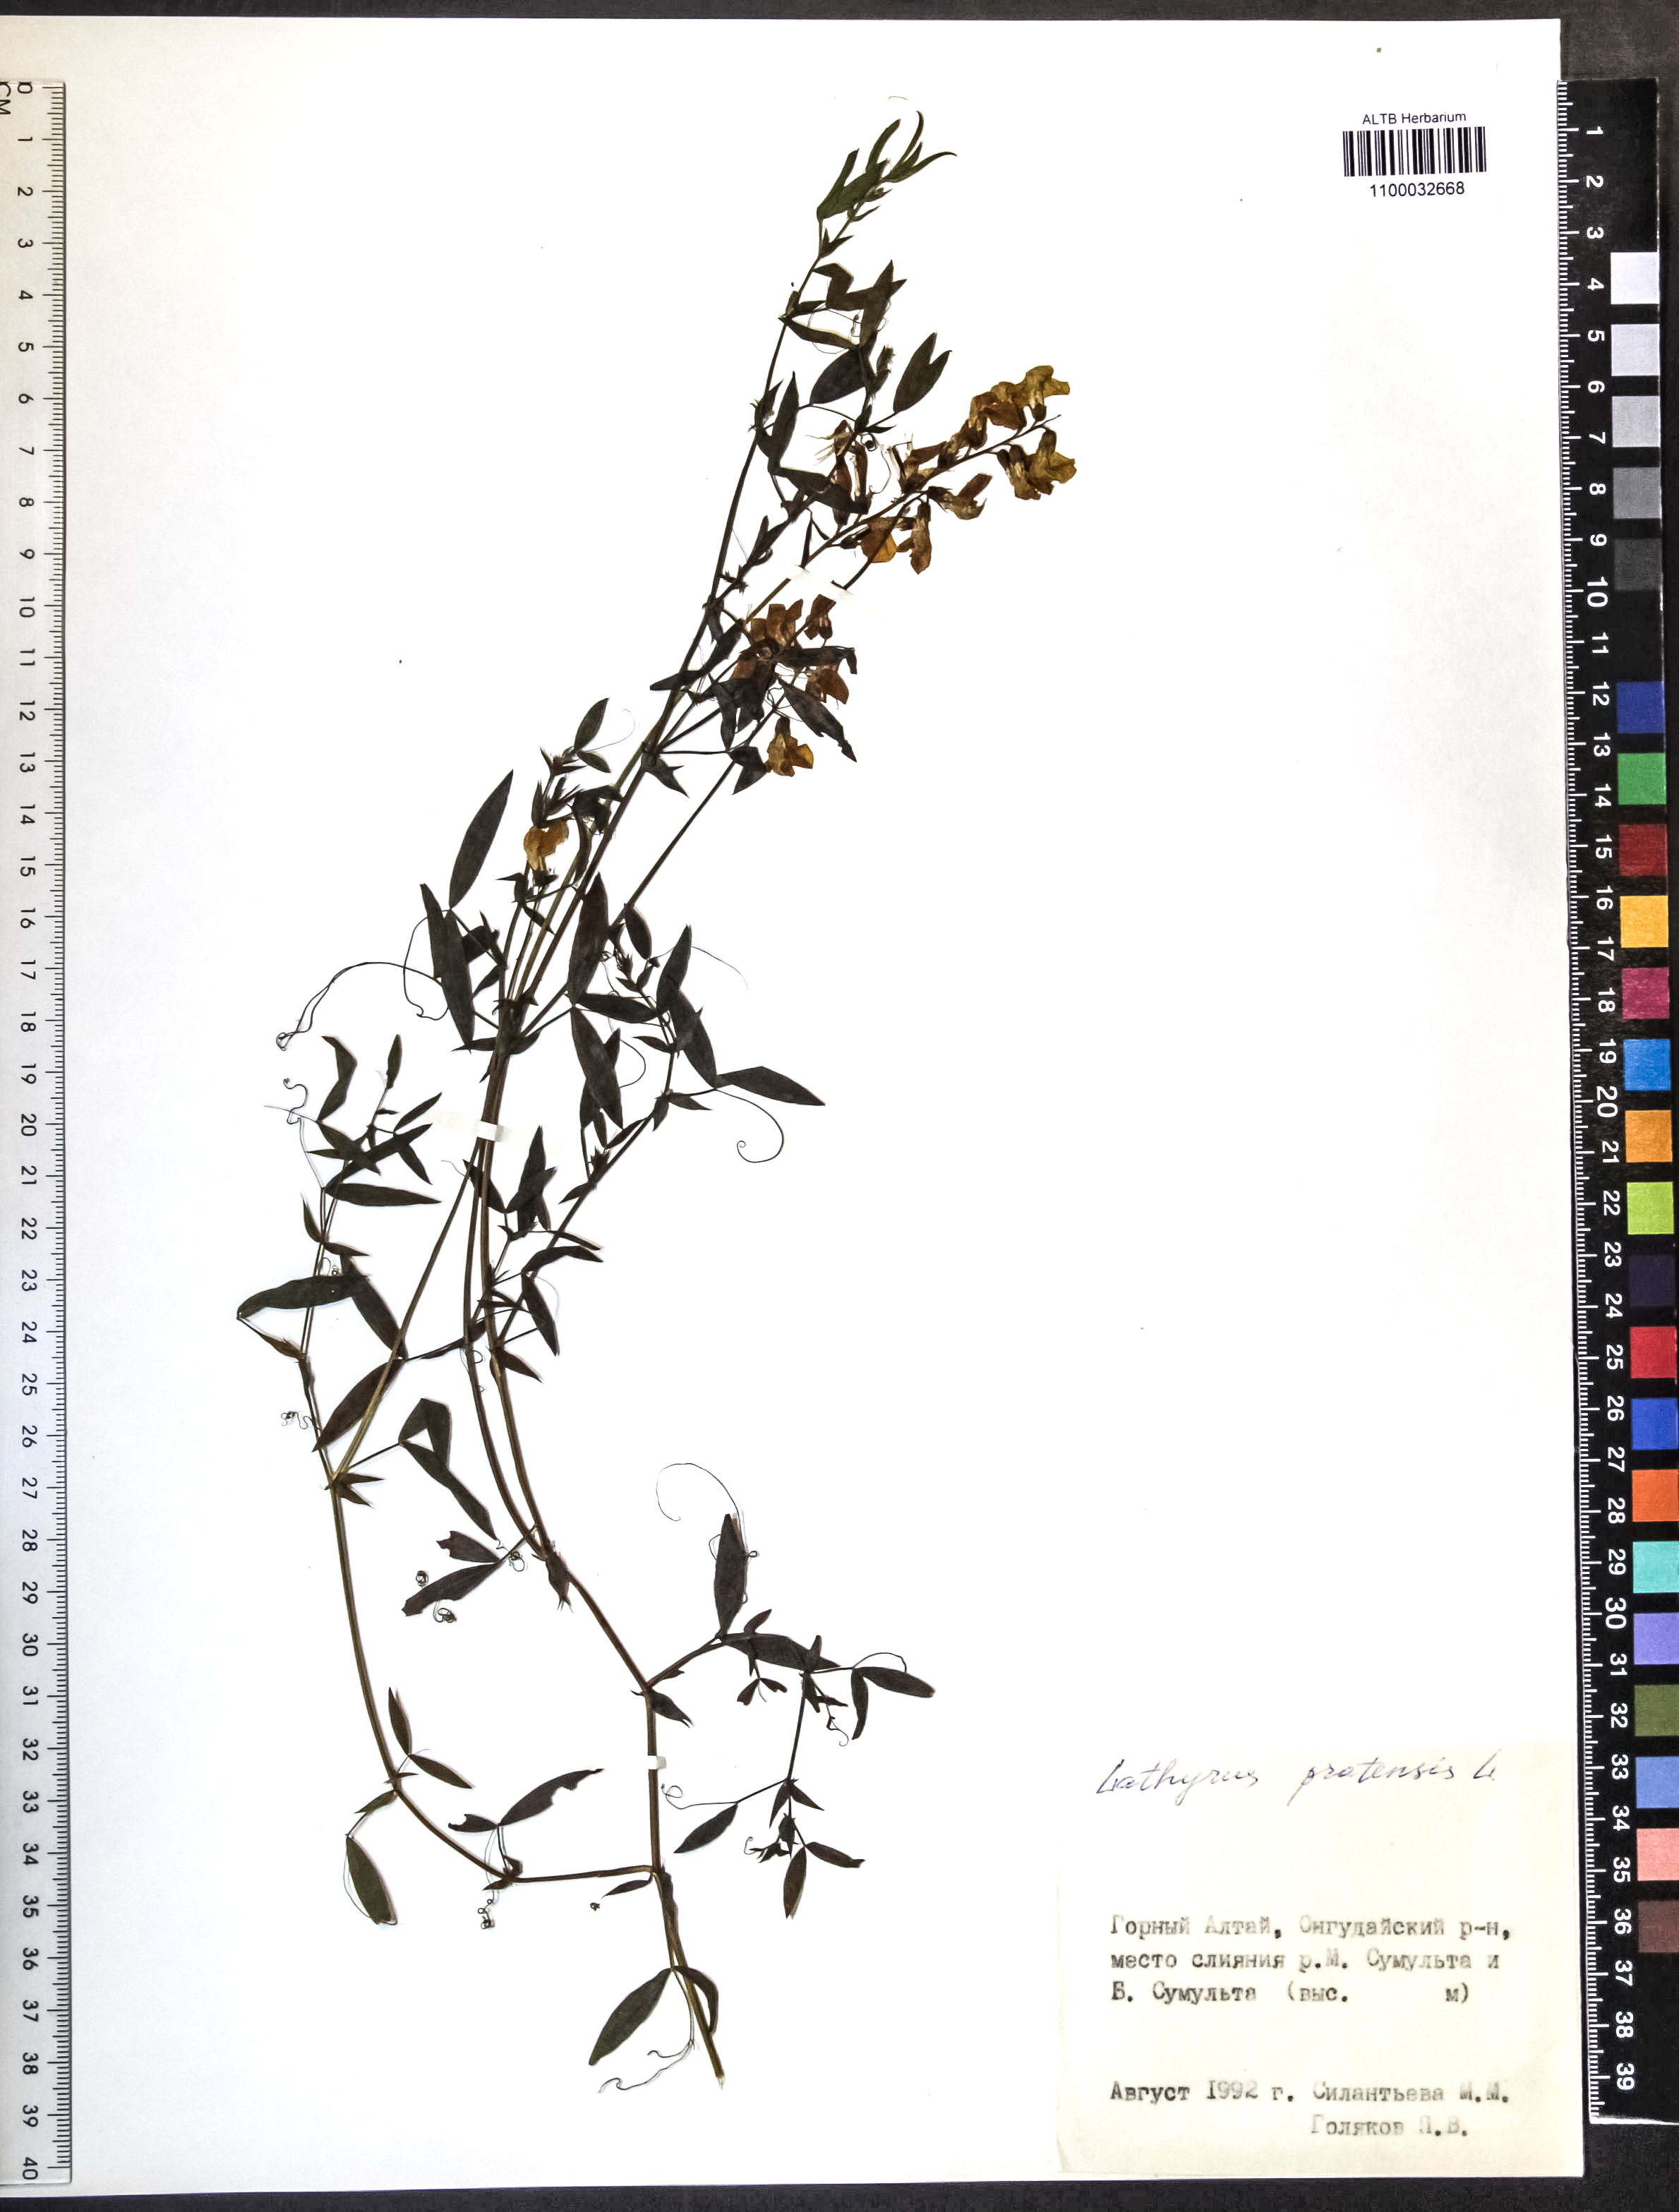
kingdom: Plantae
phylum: Tracheophyta
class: Magnoliopsida
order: Fabales
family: Fabaceae
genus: Lathyrus
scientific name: Lathyrus pratensis
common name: Meadow vetchling
